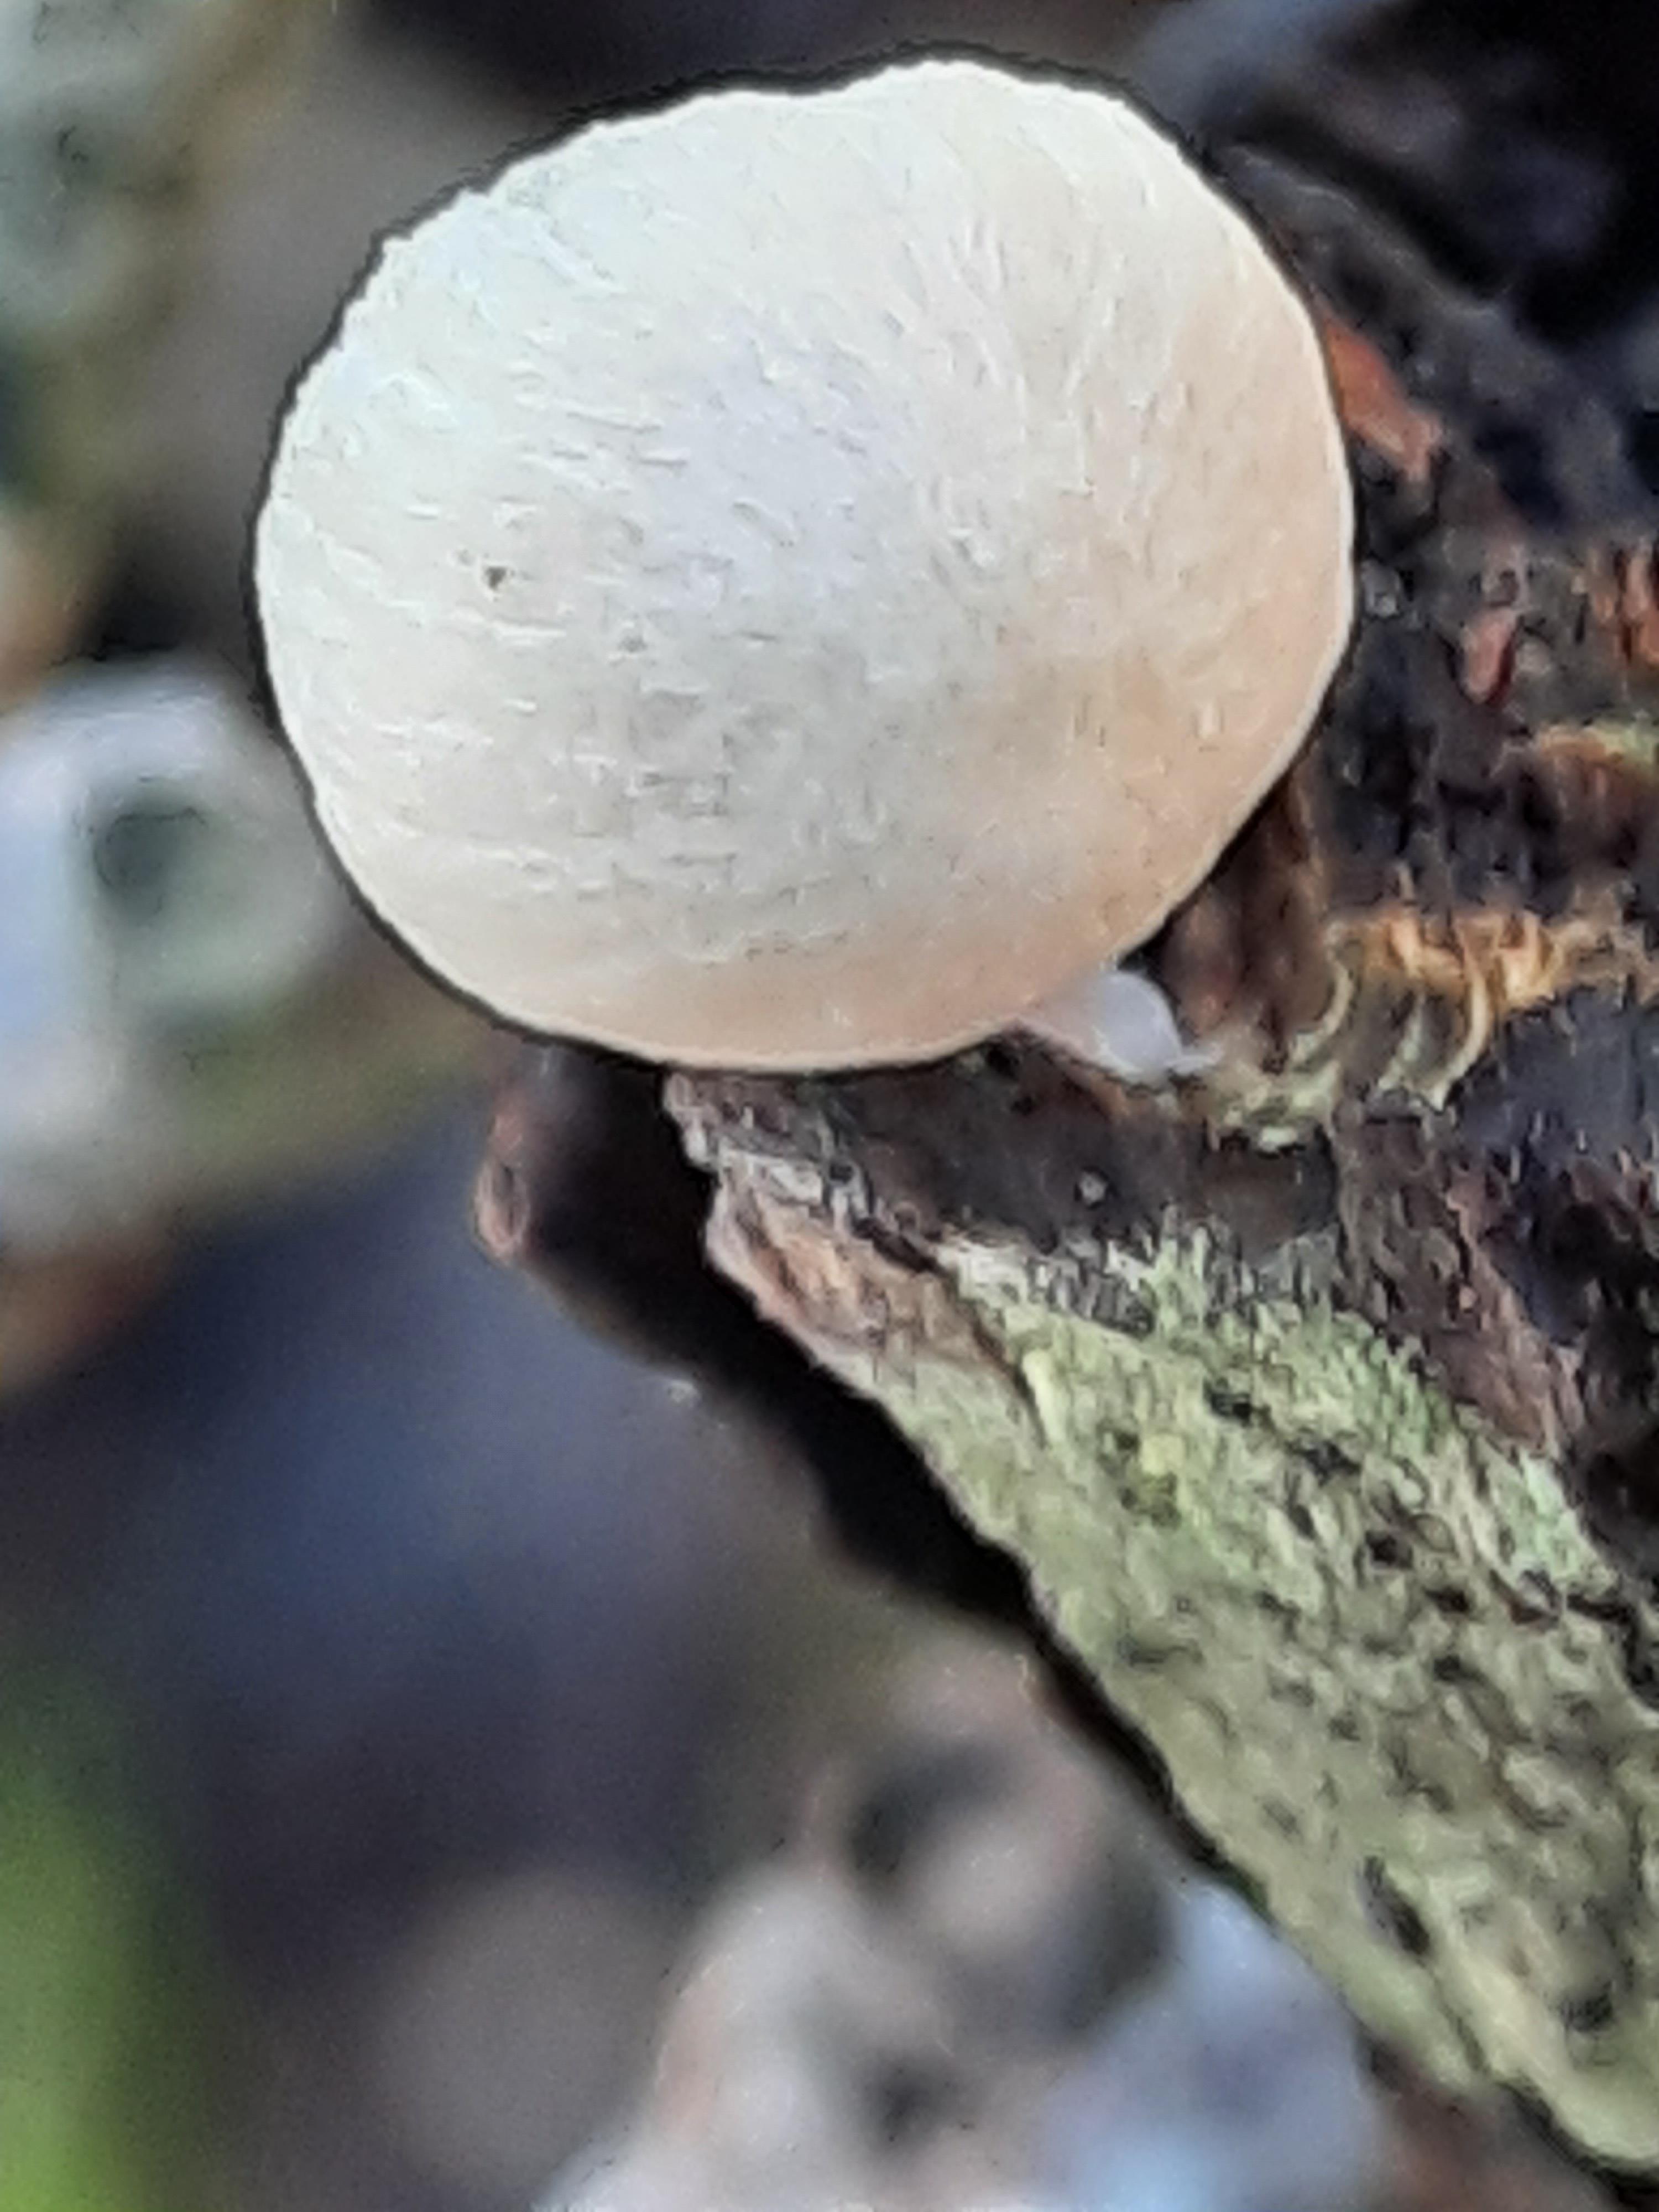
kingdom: Fungi
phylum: Basidiomycota
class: Agaricomycetes
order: Agaricales
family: Mycenaceae
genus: Mycena
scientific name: Mycena
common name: huesvamp
